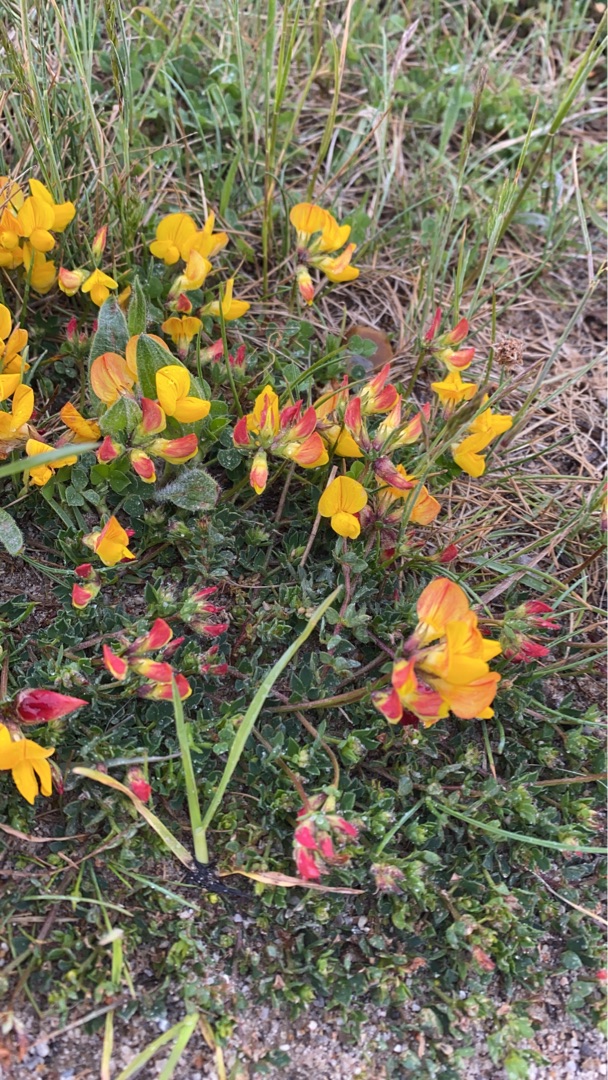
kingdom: Plantae
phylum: Tracheophyta
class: Magnoliopsida
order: Fabales
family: Fabaceae
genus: Lotus
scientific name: Lotus corniculatus
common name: Almindelig kællingetand
